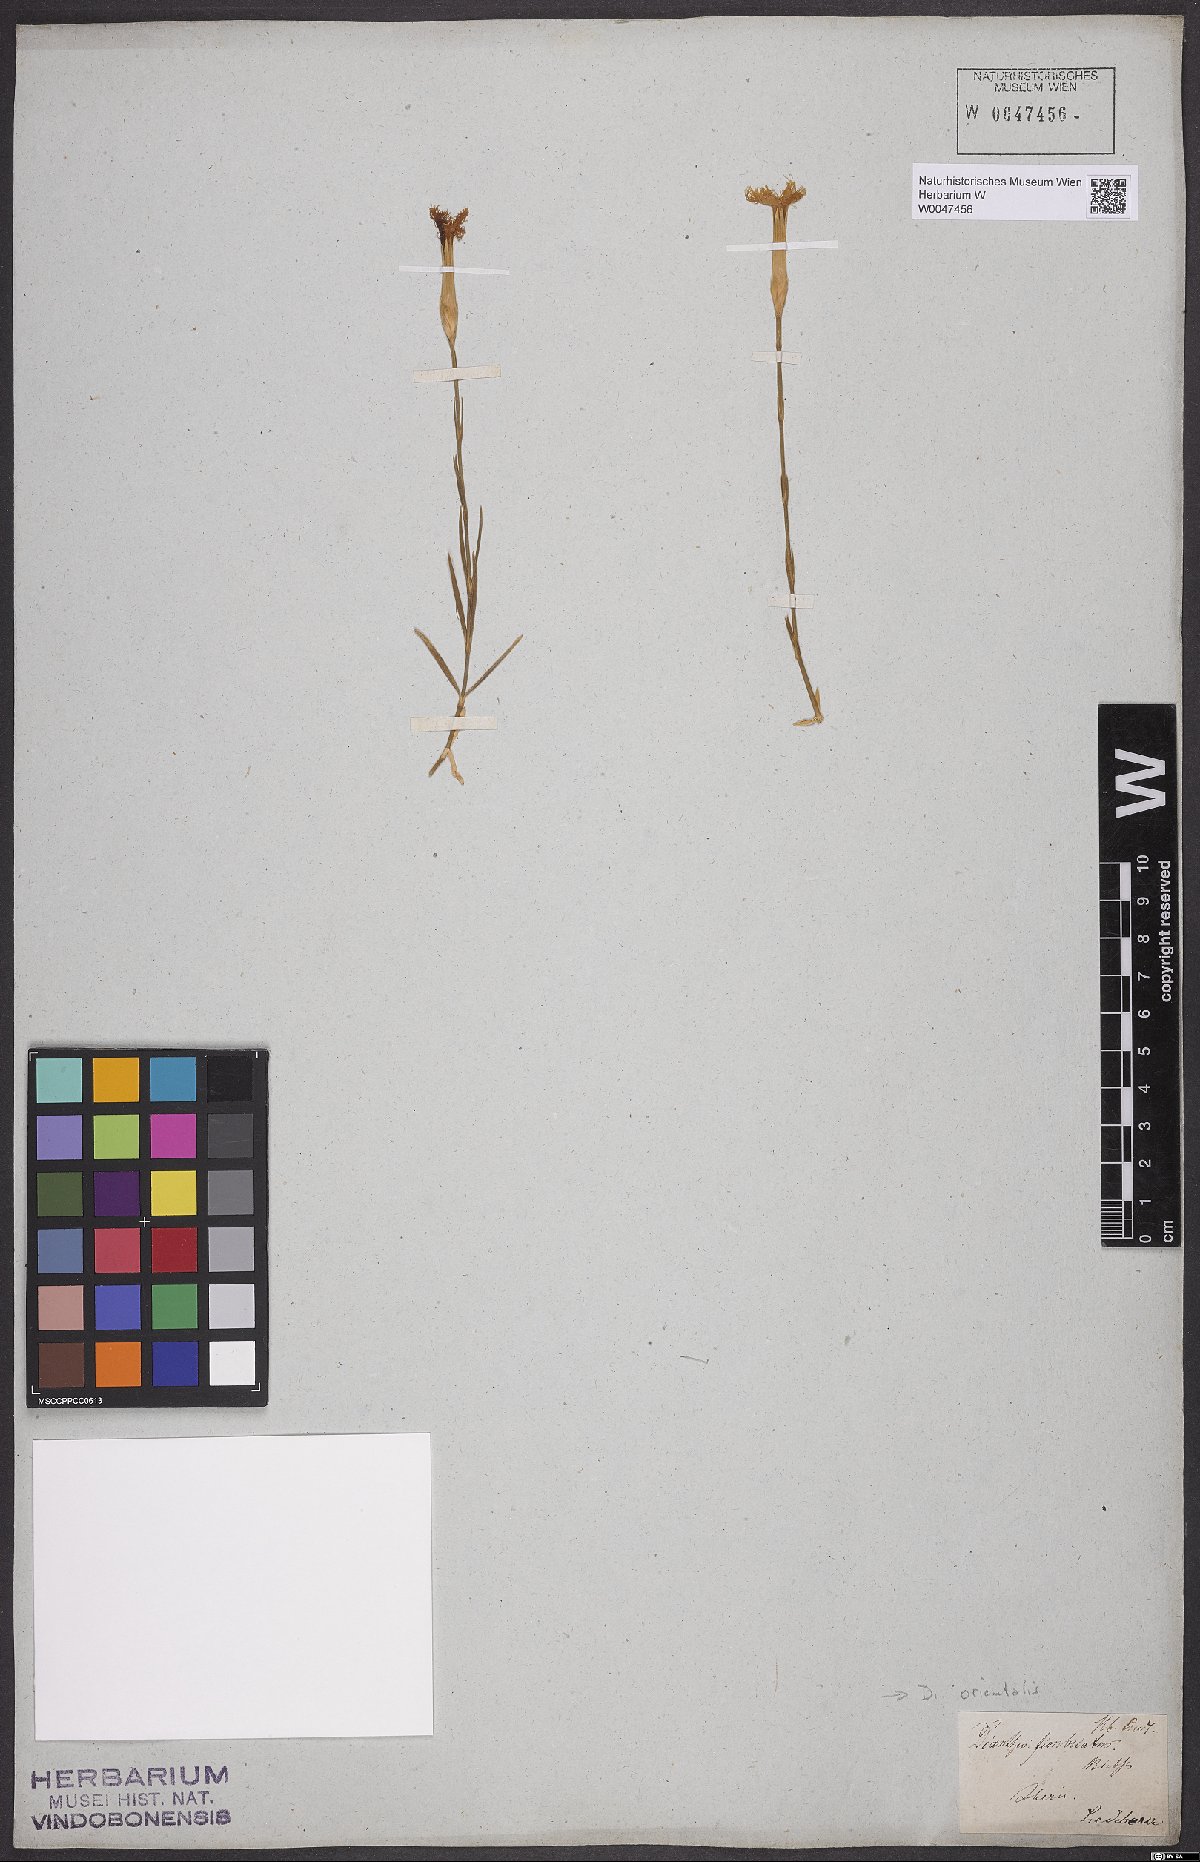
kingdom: Plantae
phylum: Tracheophyta
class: Magnoliopsida
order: Caryophyllales
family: Caryophyllaceae
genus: Dianthus
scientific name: Dianthus orientalis
